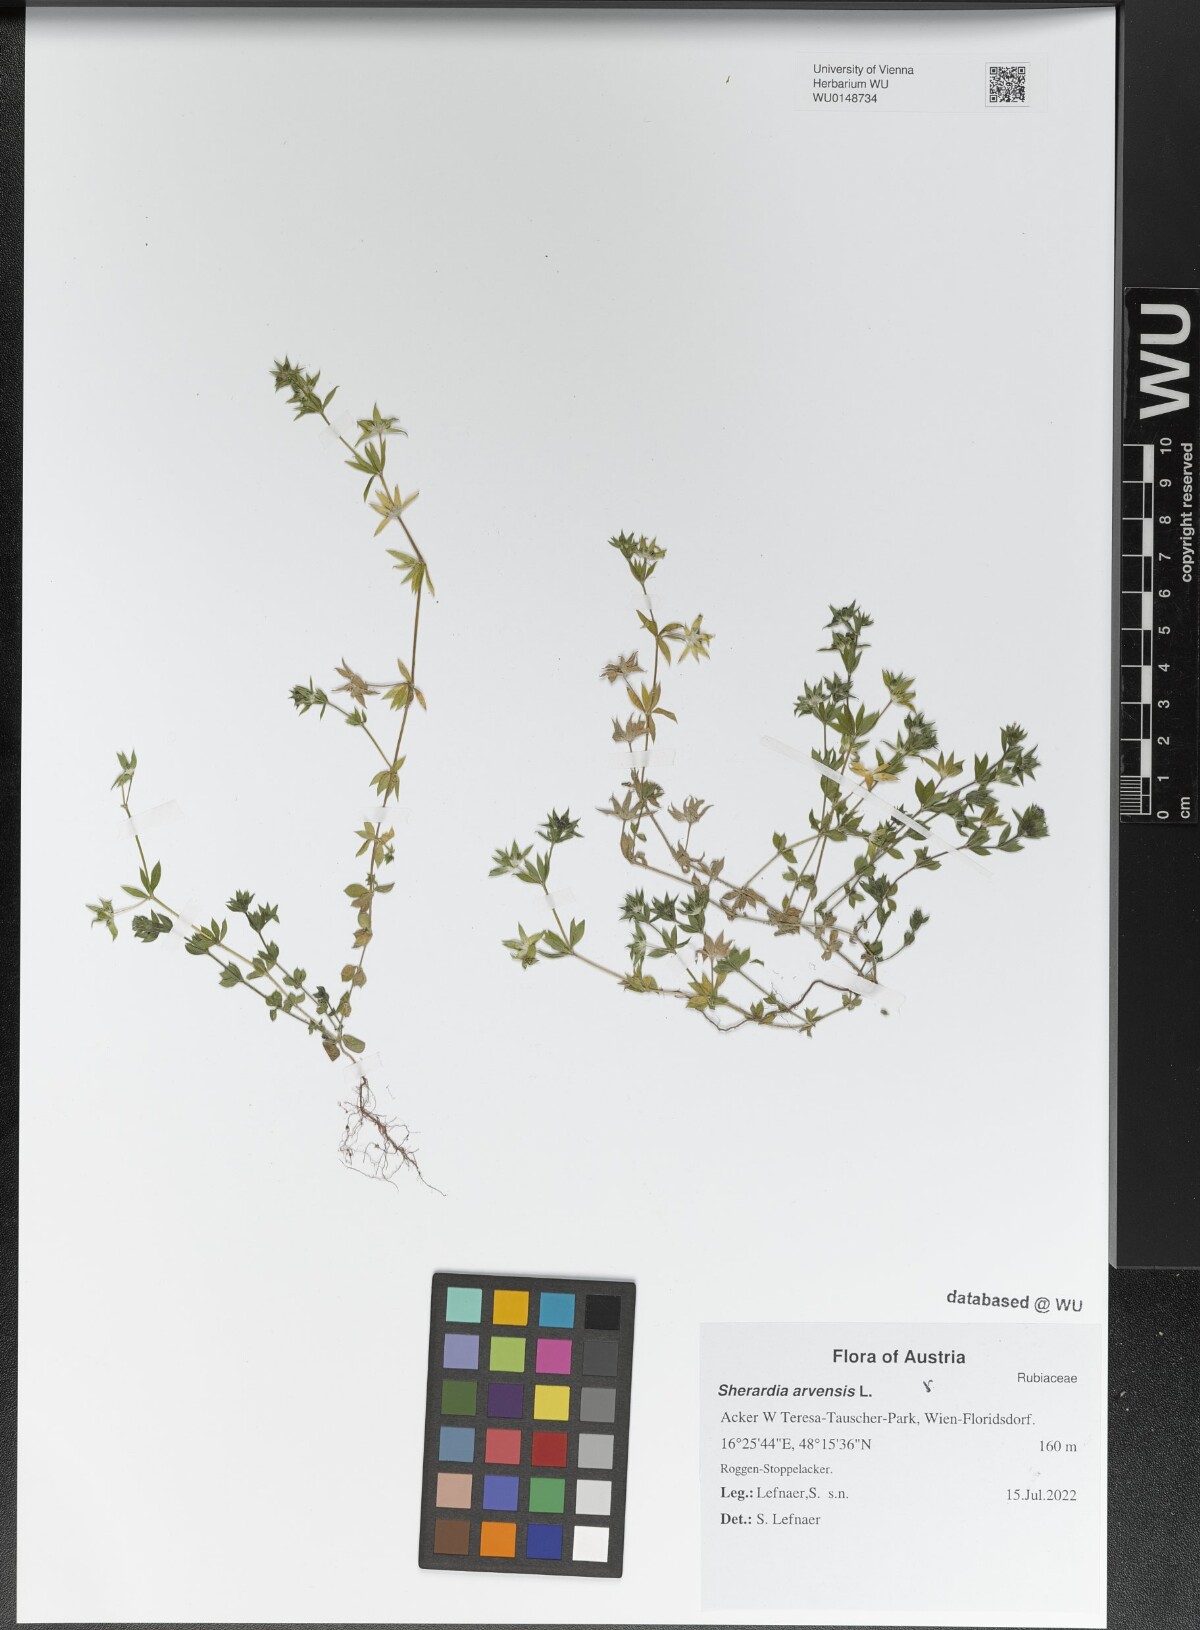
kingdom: Plantae
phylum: Tracheophyta
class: Magnoliopsida
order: Gentianales
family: Rubiaceae
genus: Sherardia
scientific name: Sherardia arvensis
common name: Field madder
